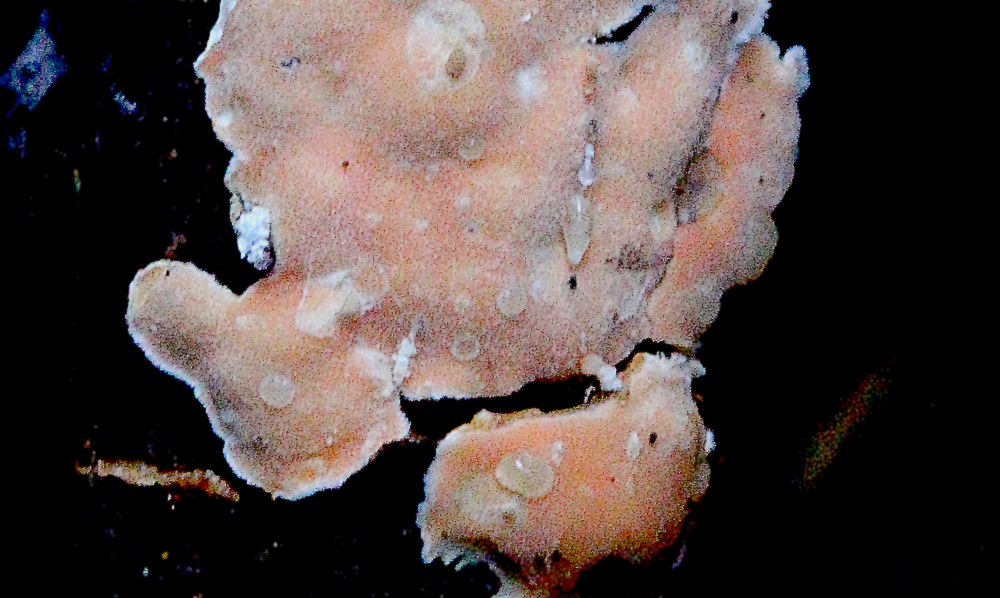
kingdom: Fungi
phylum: Basidiomycota
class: Tremellomycetes
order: Tremellales
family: Tremellaceae
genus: Phaeotremella
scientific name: Phaeotremella simplex
